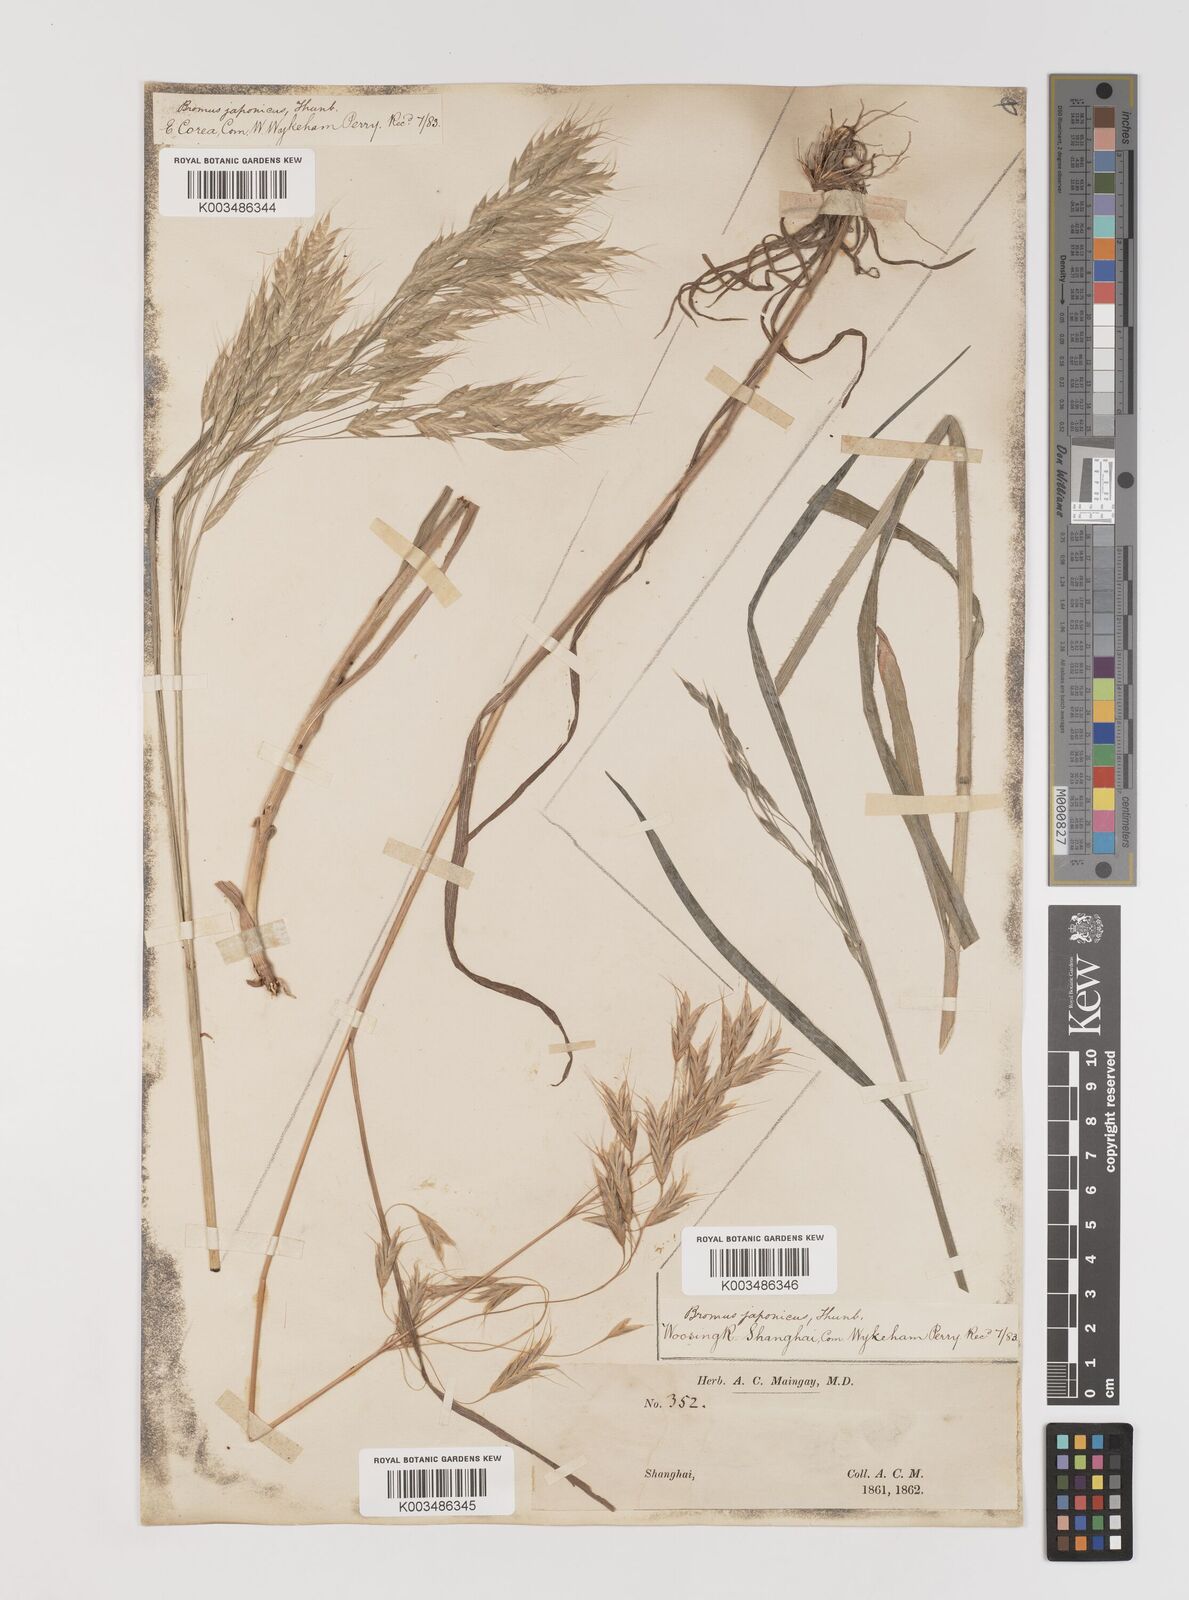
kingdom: Plantae
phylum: Tracheophyta
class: Liliopsida
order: Poales
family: Poaceae
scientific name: Poaceae
